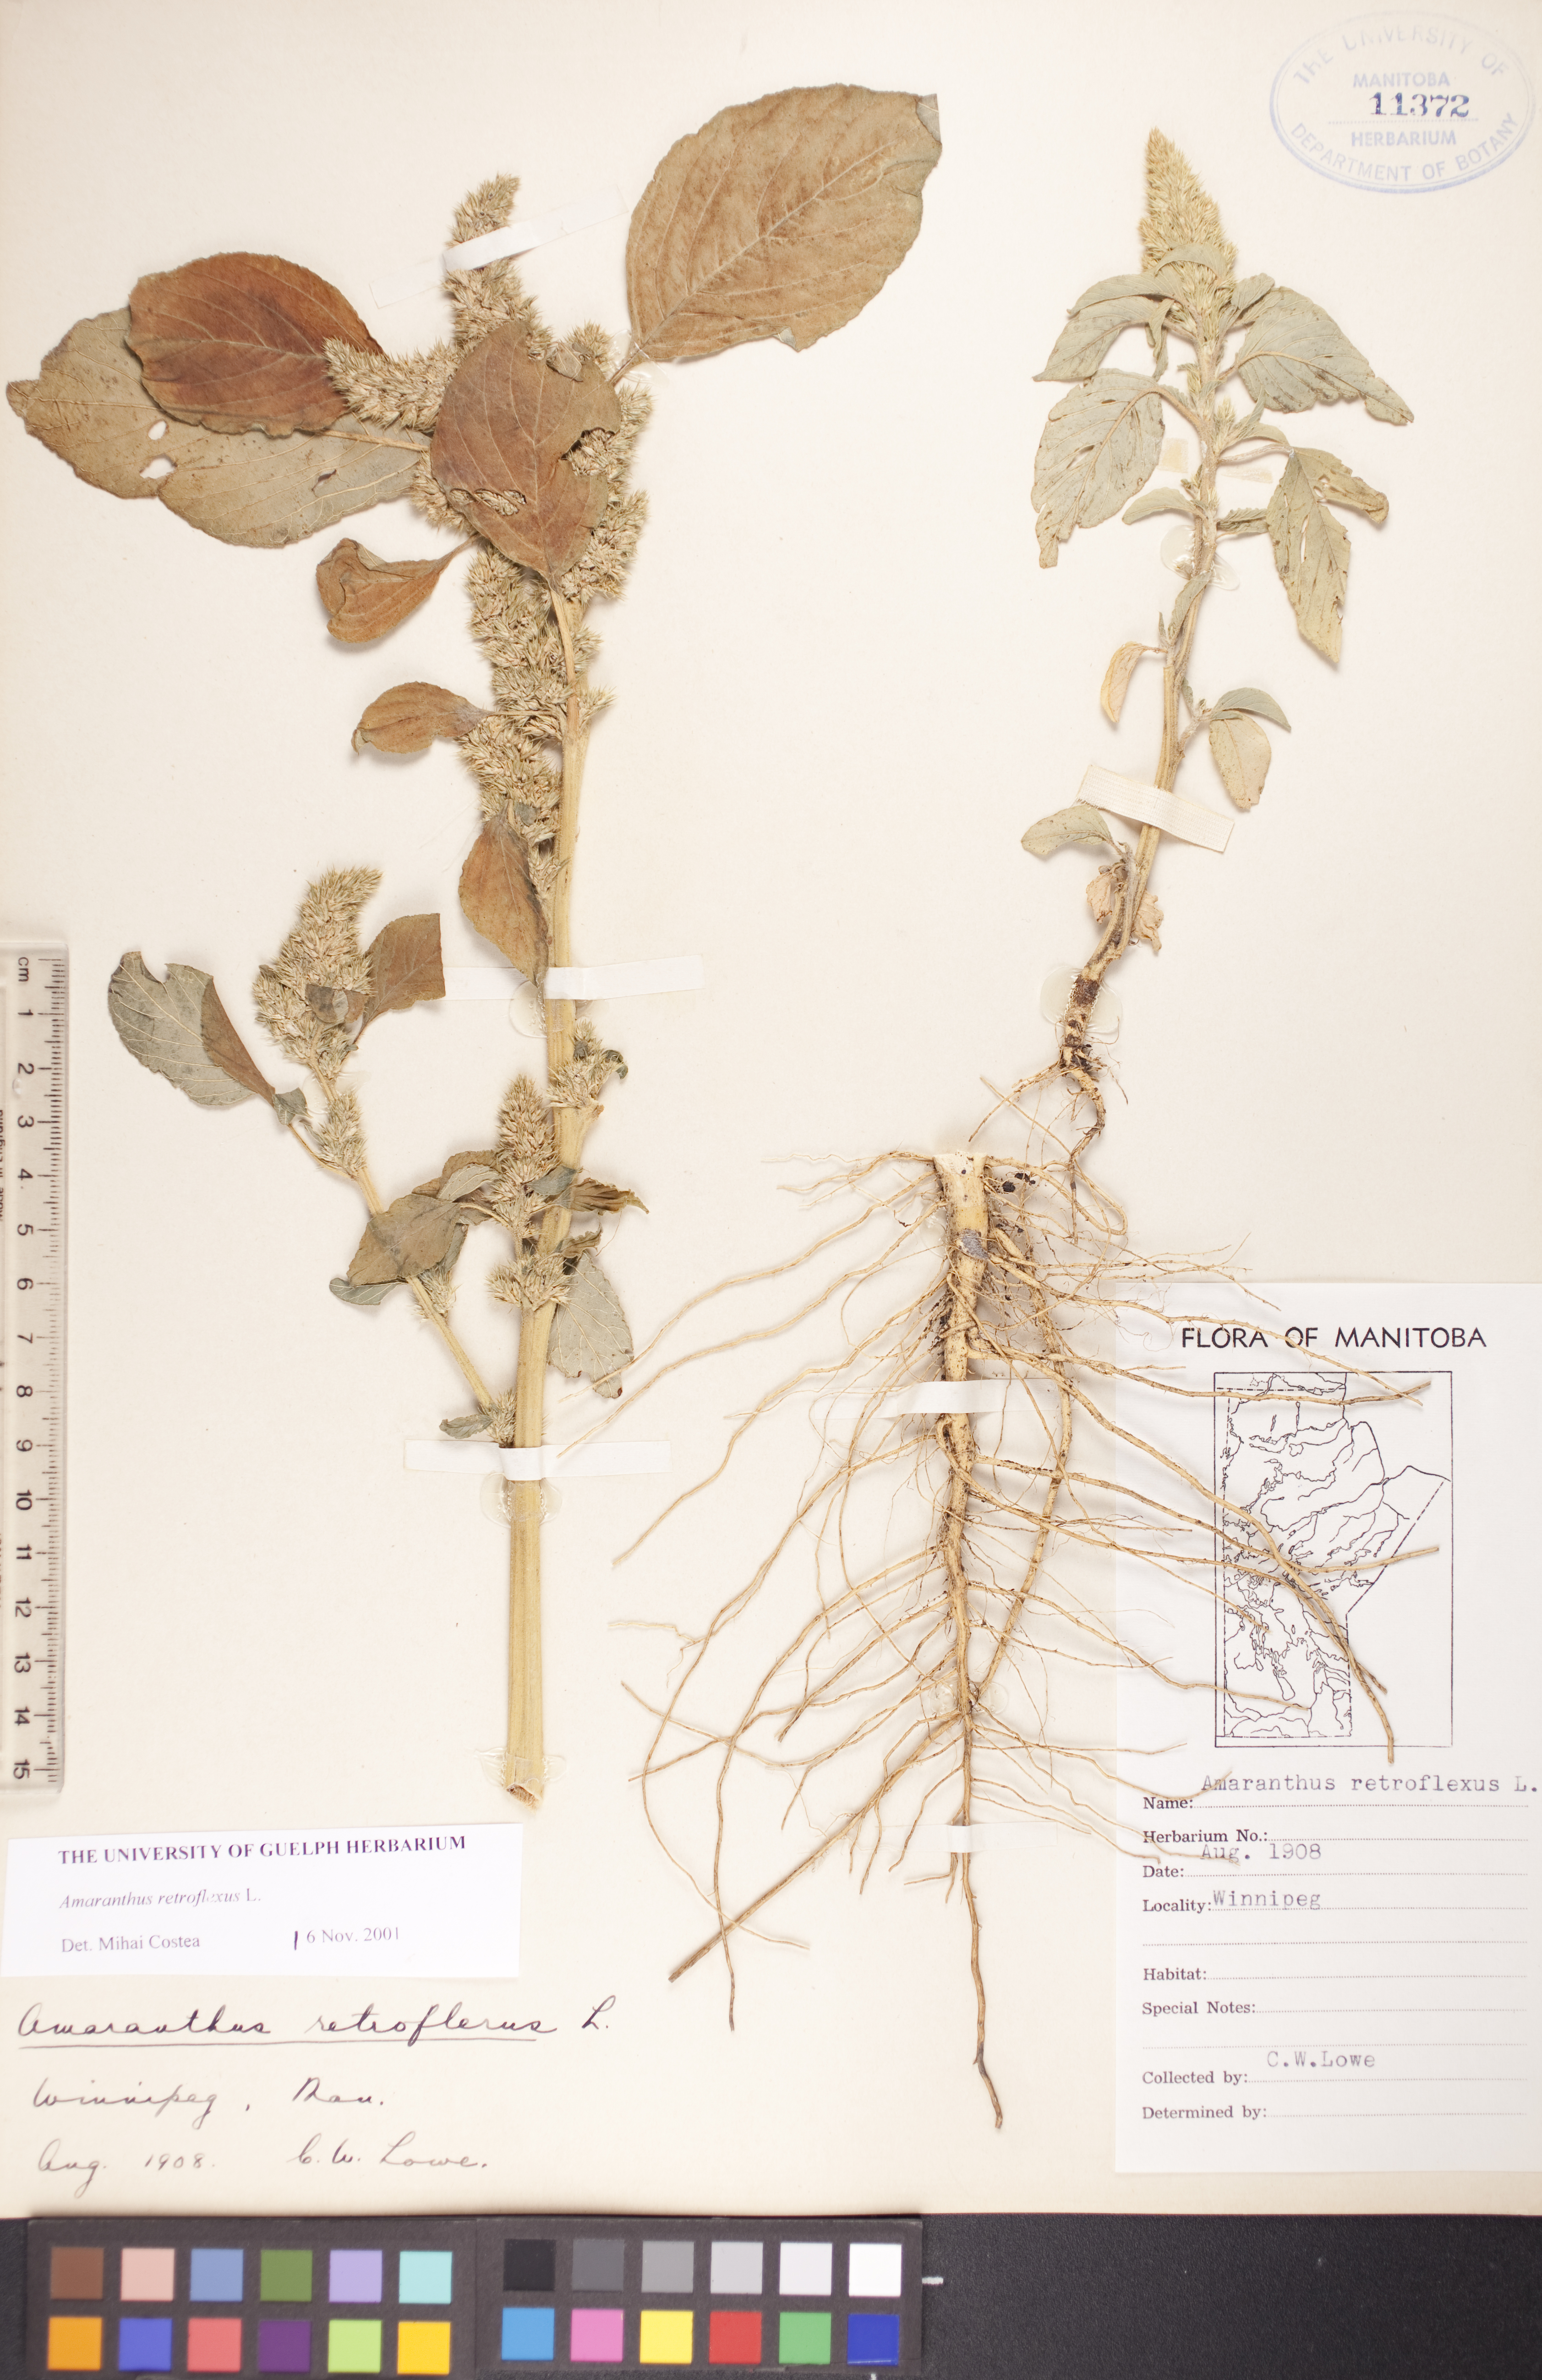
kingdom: Plantae
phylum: Tracheophyta
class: Magnoliopsida
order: Caryophyllales
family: Amaranthaceae
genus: Amaranthus
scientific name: Amaranthus retroflexus
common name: Redroot amaranth
